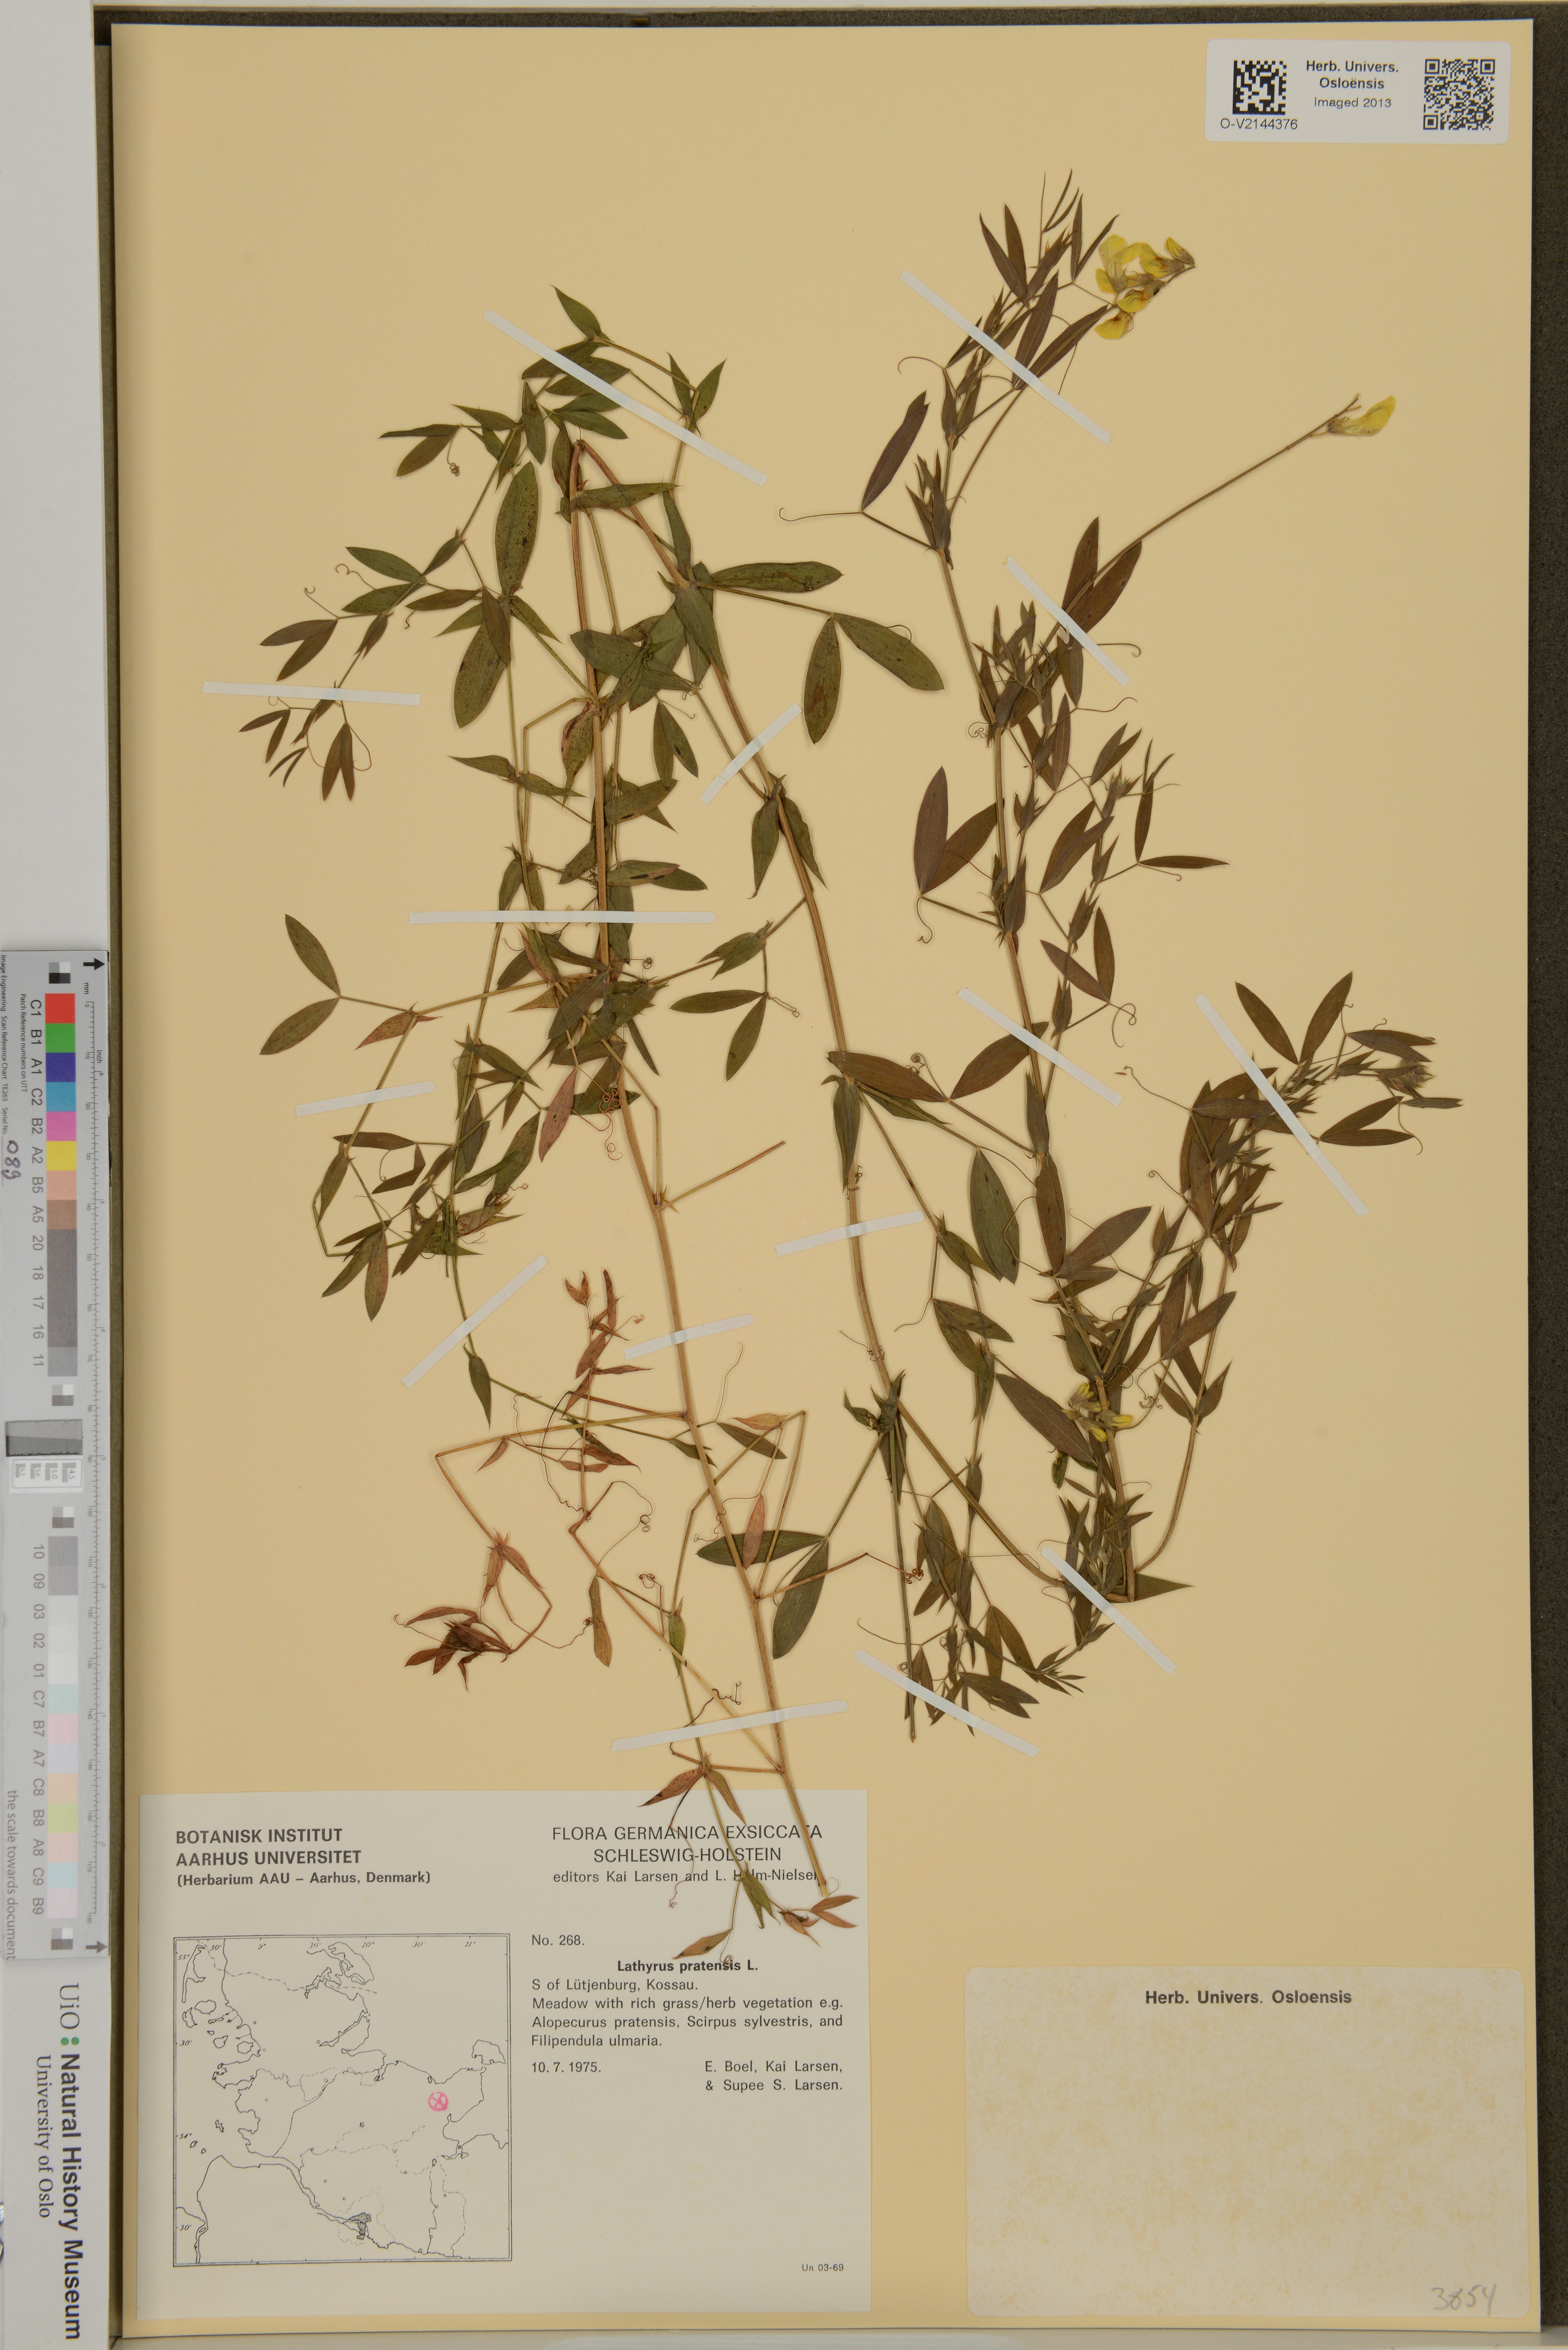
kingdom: Plantae
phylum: Tracheophyta
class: Magnoliopsida
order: Fabales
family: Fabaceae
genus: Lathyrus
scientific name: Lathyrus pratensis
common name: Meadow vetchling
